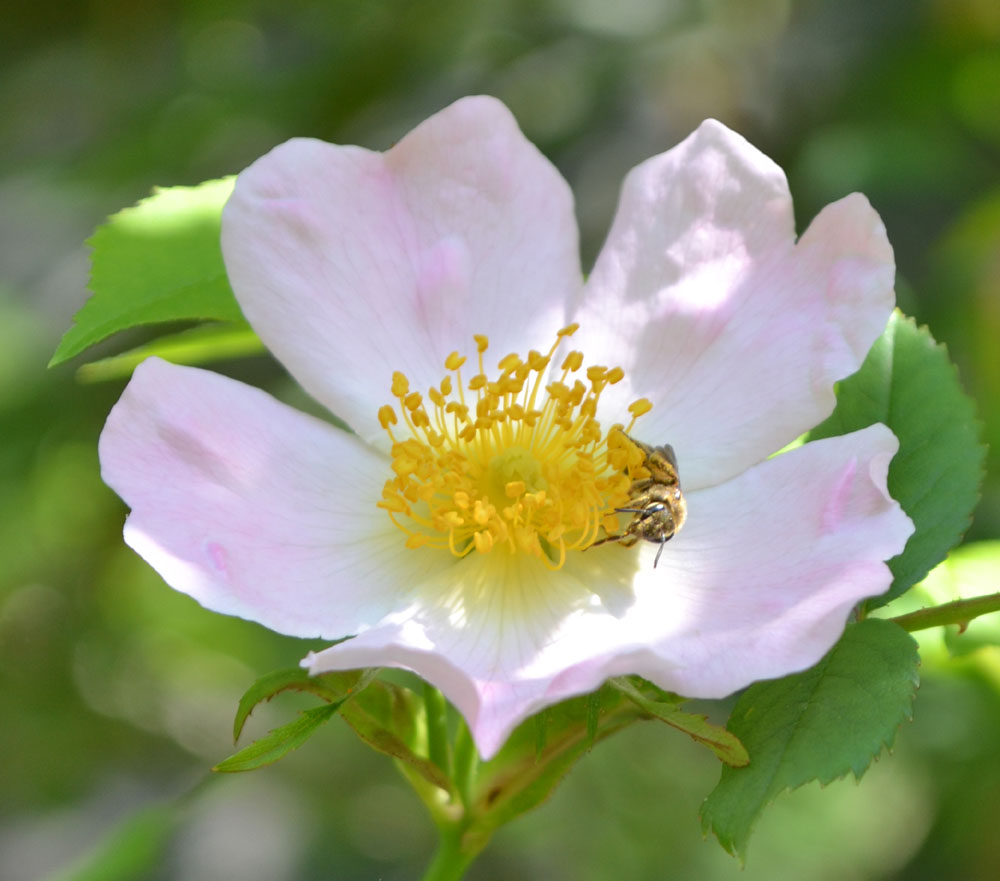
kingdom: Plantae
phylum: Tracheophyta
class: Magnoliopsida
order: Rosales
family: Rosaceae
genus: Rosa
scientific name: Rosa
